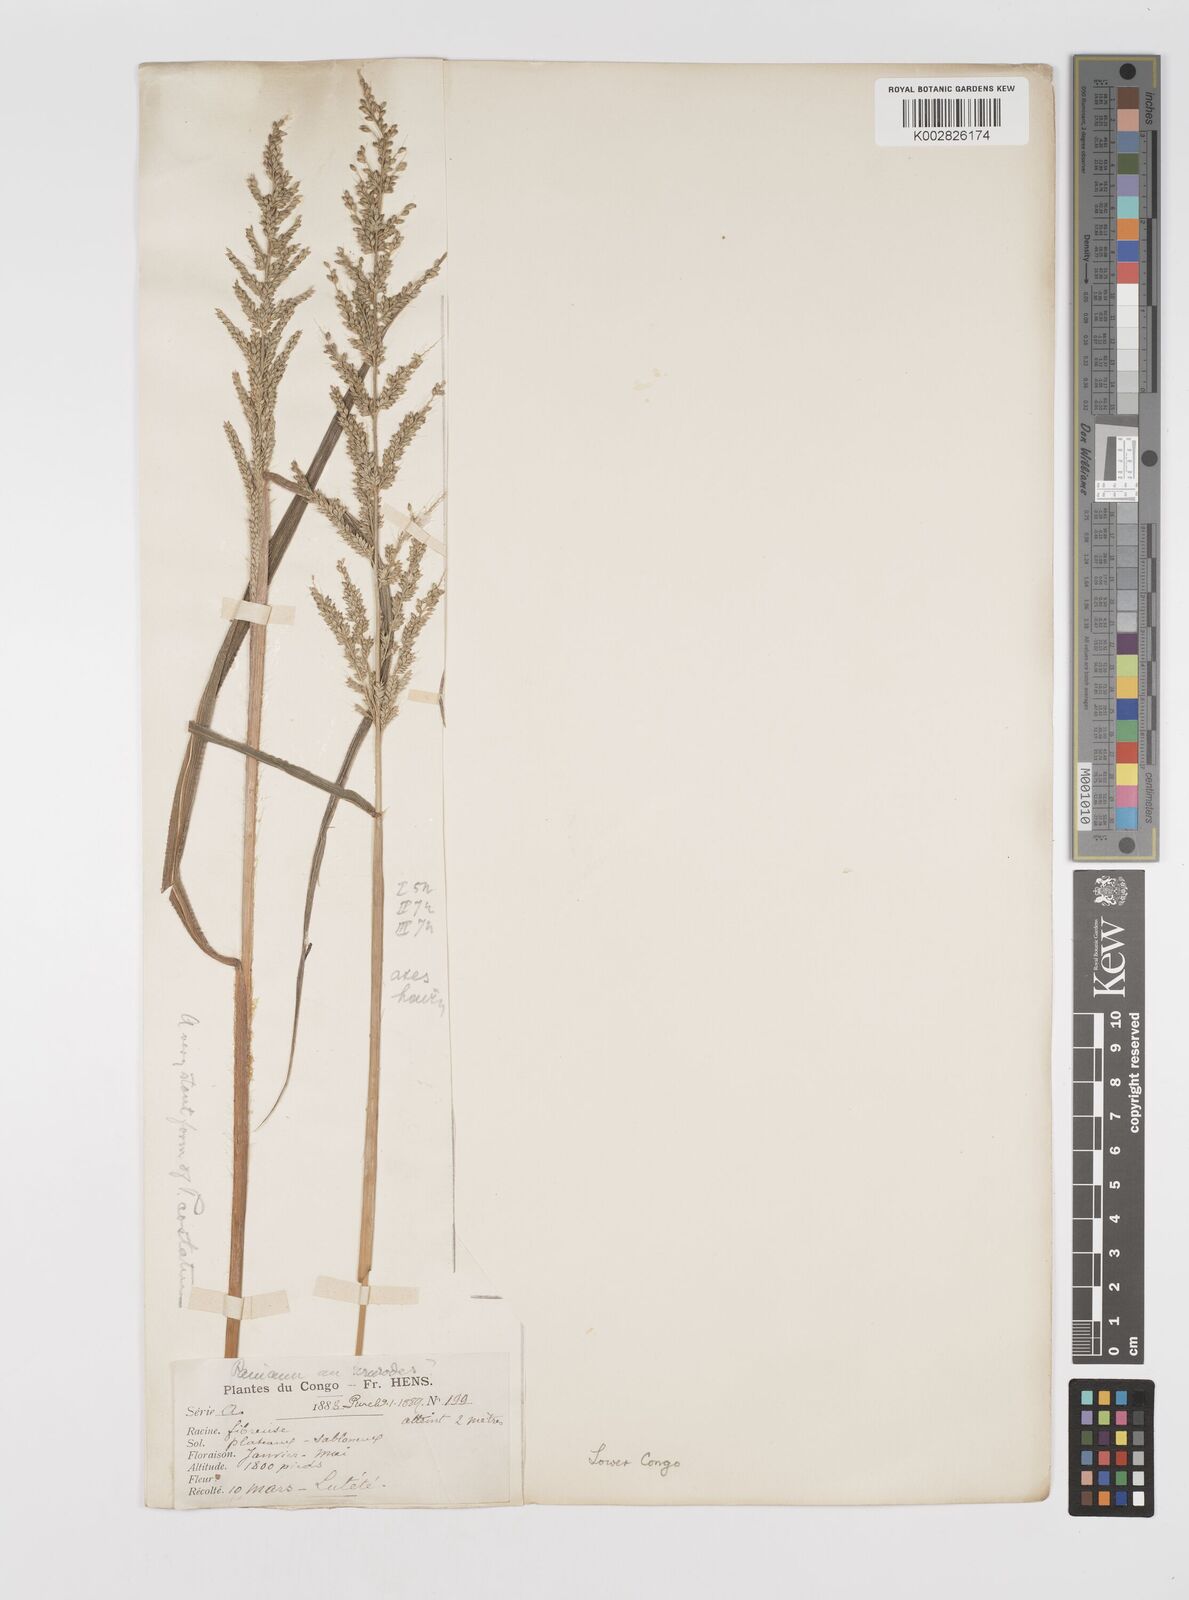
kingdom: Plantae
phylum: Tracheophyta
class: Liliopsida
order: Poales
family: Poaceae
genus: Setaria
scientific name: Setaria barbata
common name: East indian bristlegrass
